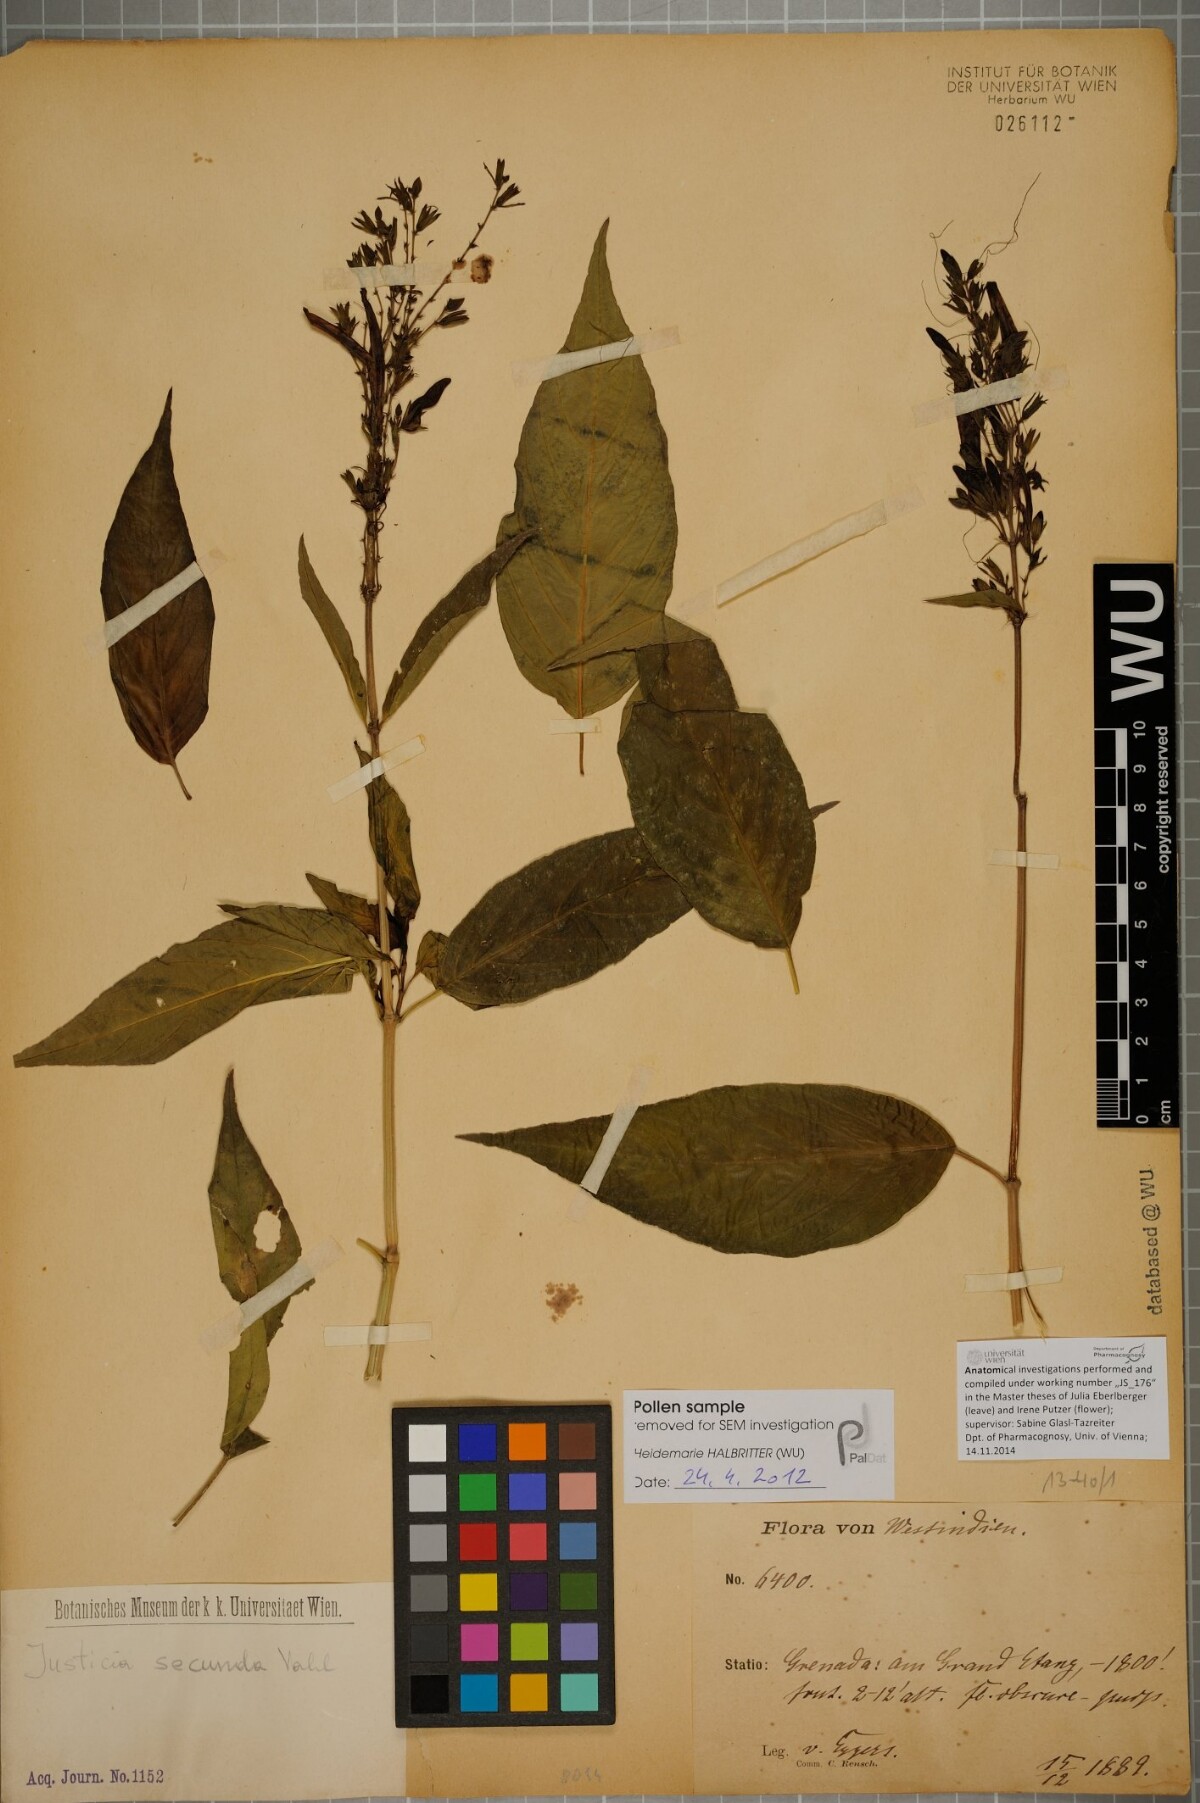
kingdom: Plantae
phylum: Tracheophyta
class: Magnoliopsida
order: Lamiales
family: Acanthaceae
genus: Justicia
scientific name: Justicia secunda
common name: Blood root
